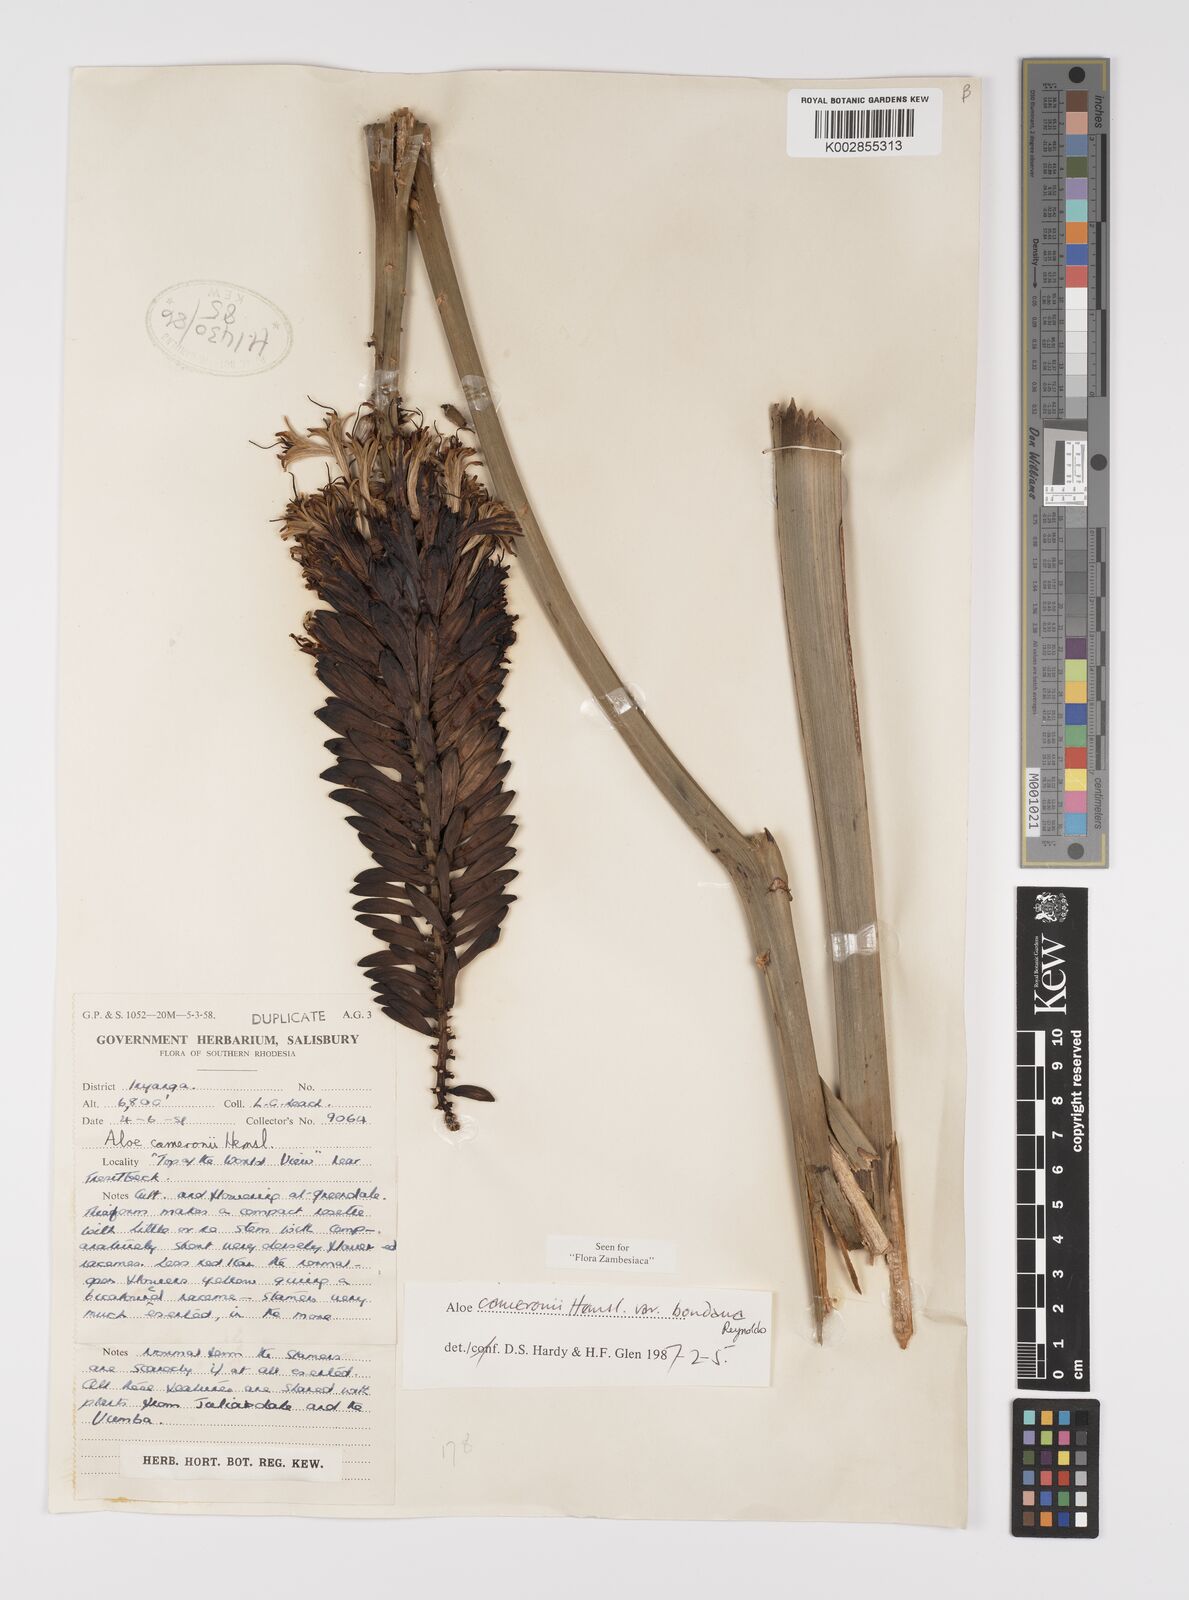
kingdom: Plantae
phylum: Tracheophyta
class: Liliopsida
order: Asparagales
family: Asphodelaceae
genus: Aloe
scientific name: Aloe cameronii
